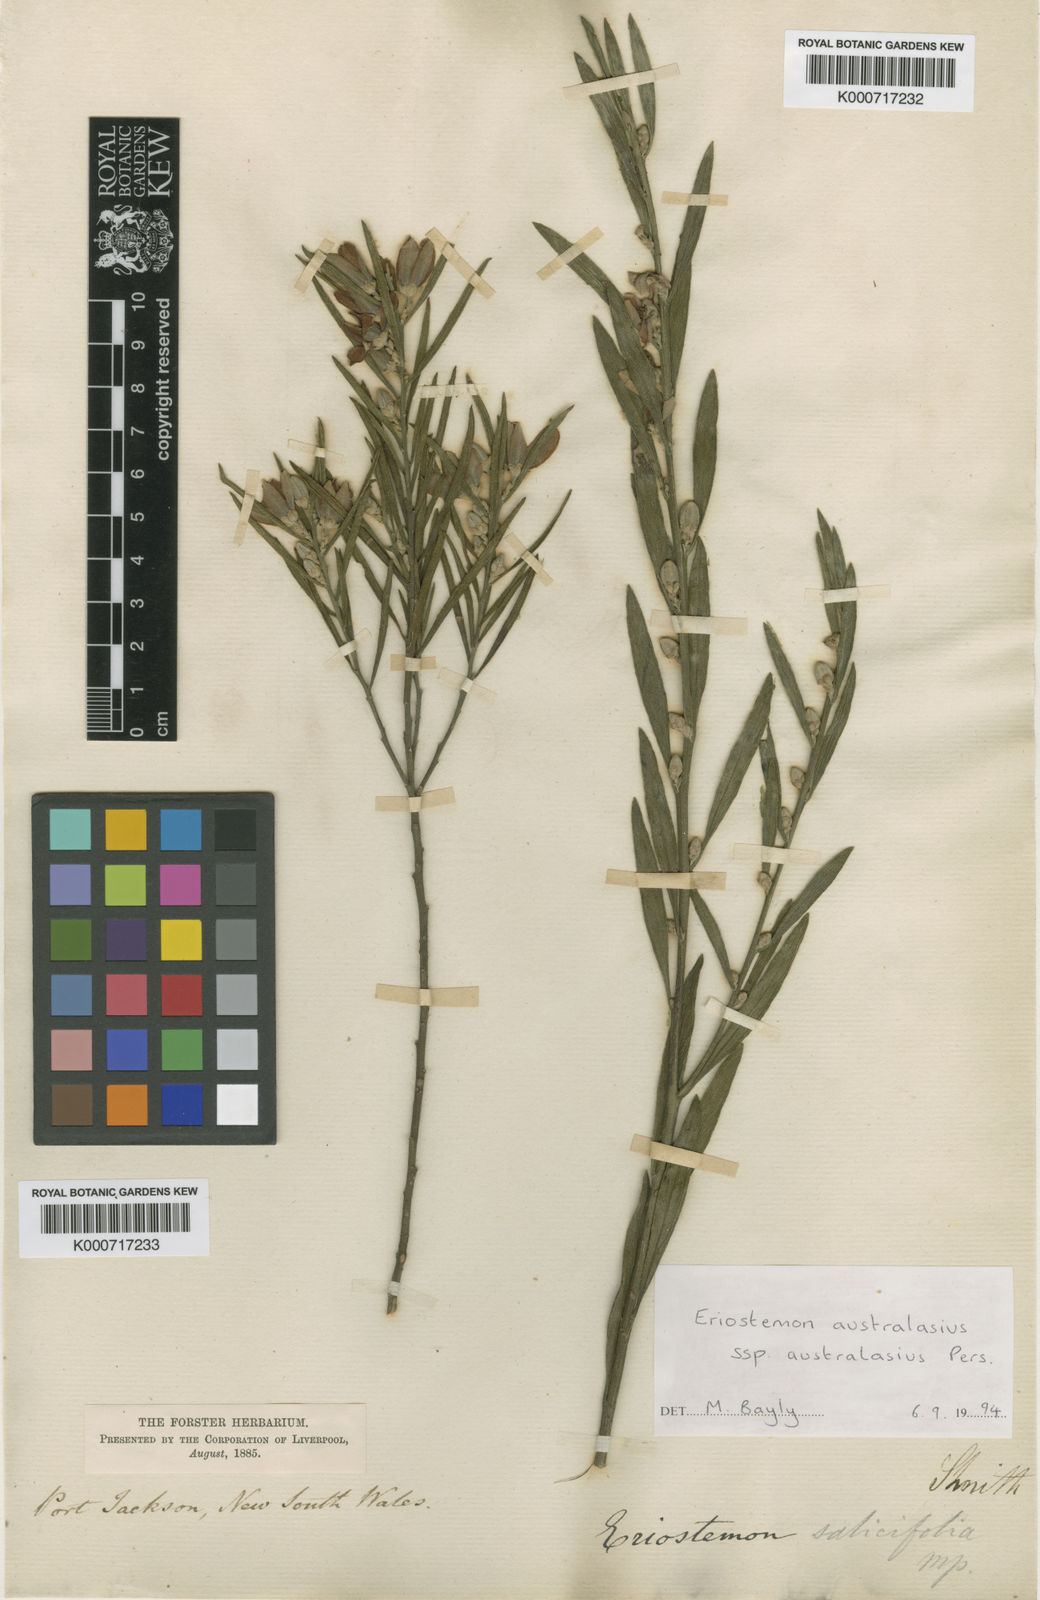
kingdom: Plantae
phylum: Tracheophyta
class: Magnoliopsida
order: Sapindales
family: Rutaceae
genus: Eriostemon
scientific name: Eriostemon australasius
